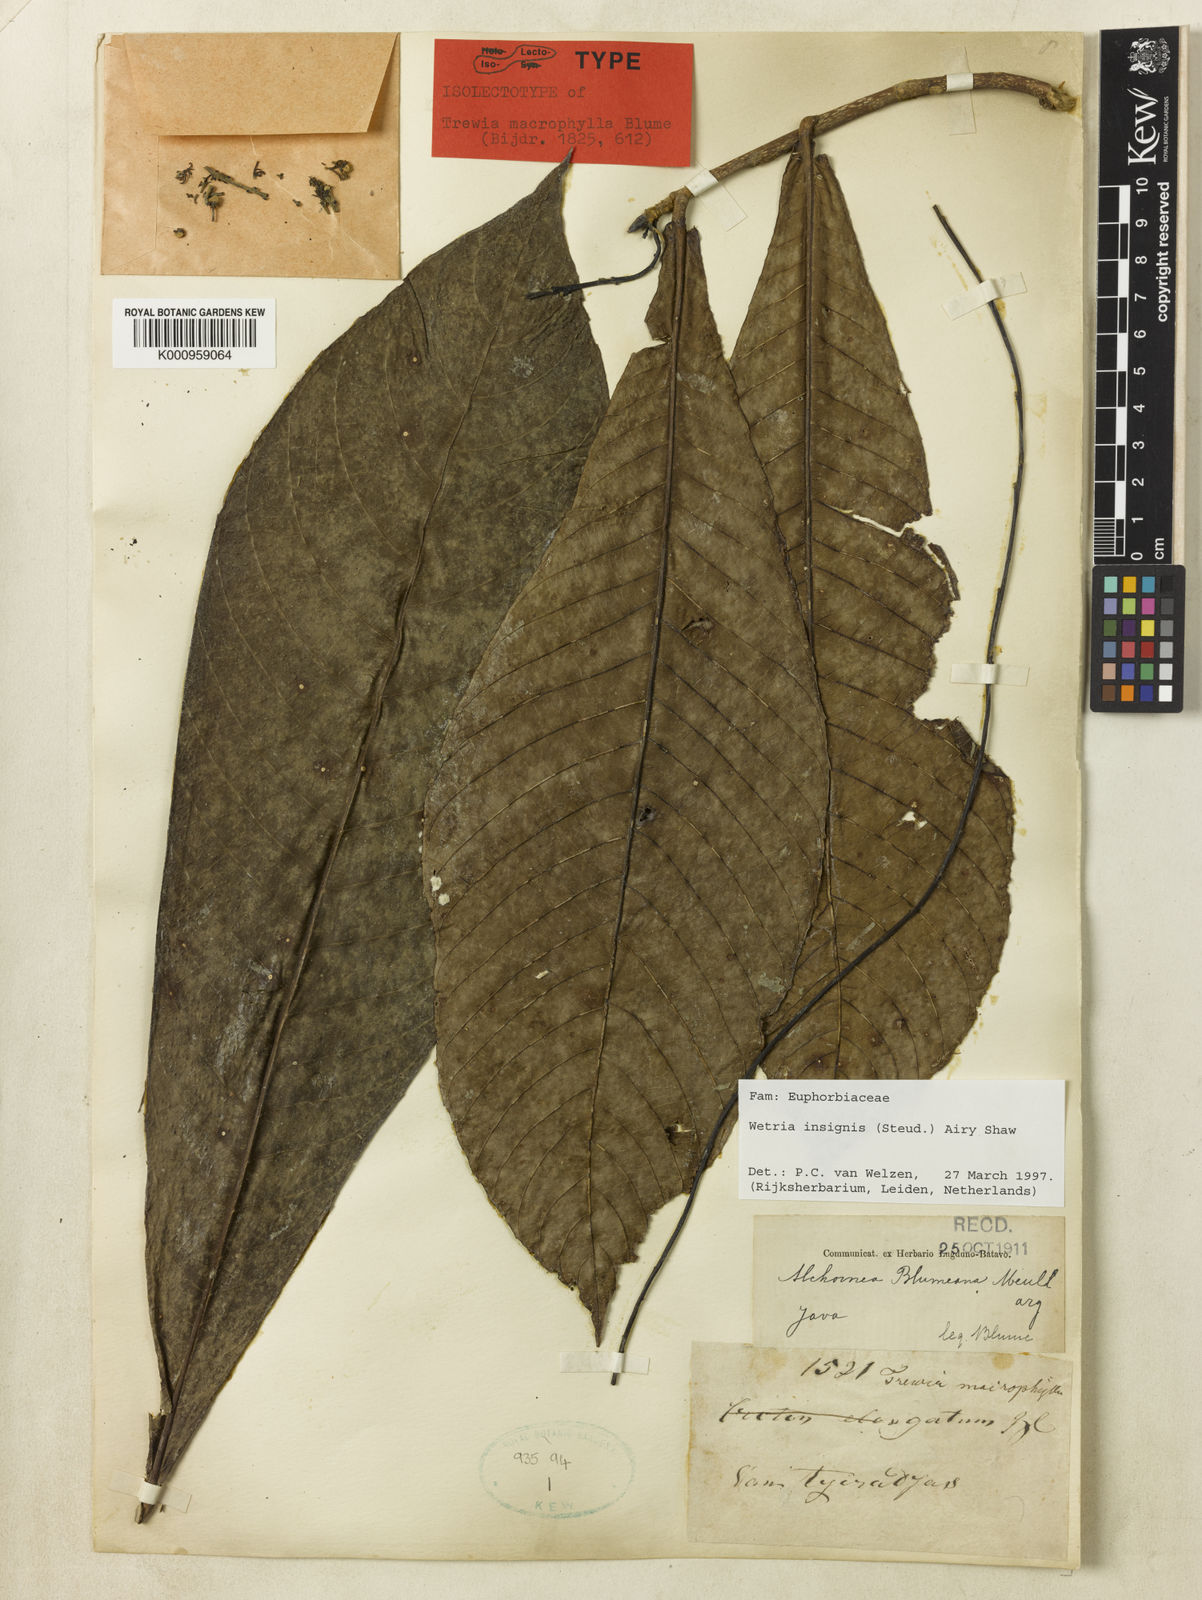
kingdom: Plantae
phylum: Tracheophyta
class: Magnoliopsida
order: Malpighiales
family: Euphorbiaceae
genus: Wetria
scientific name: Wetria insignis
